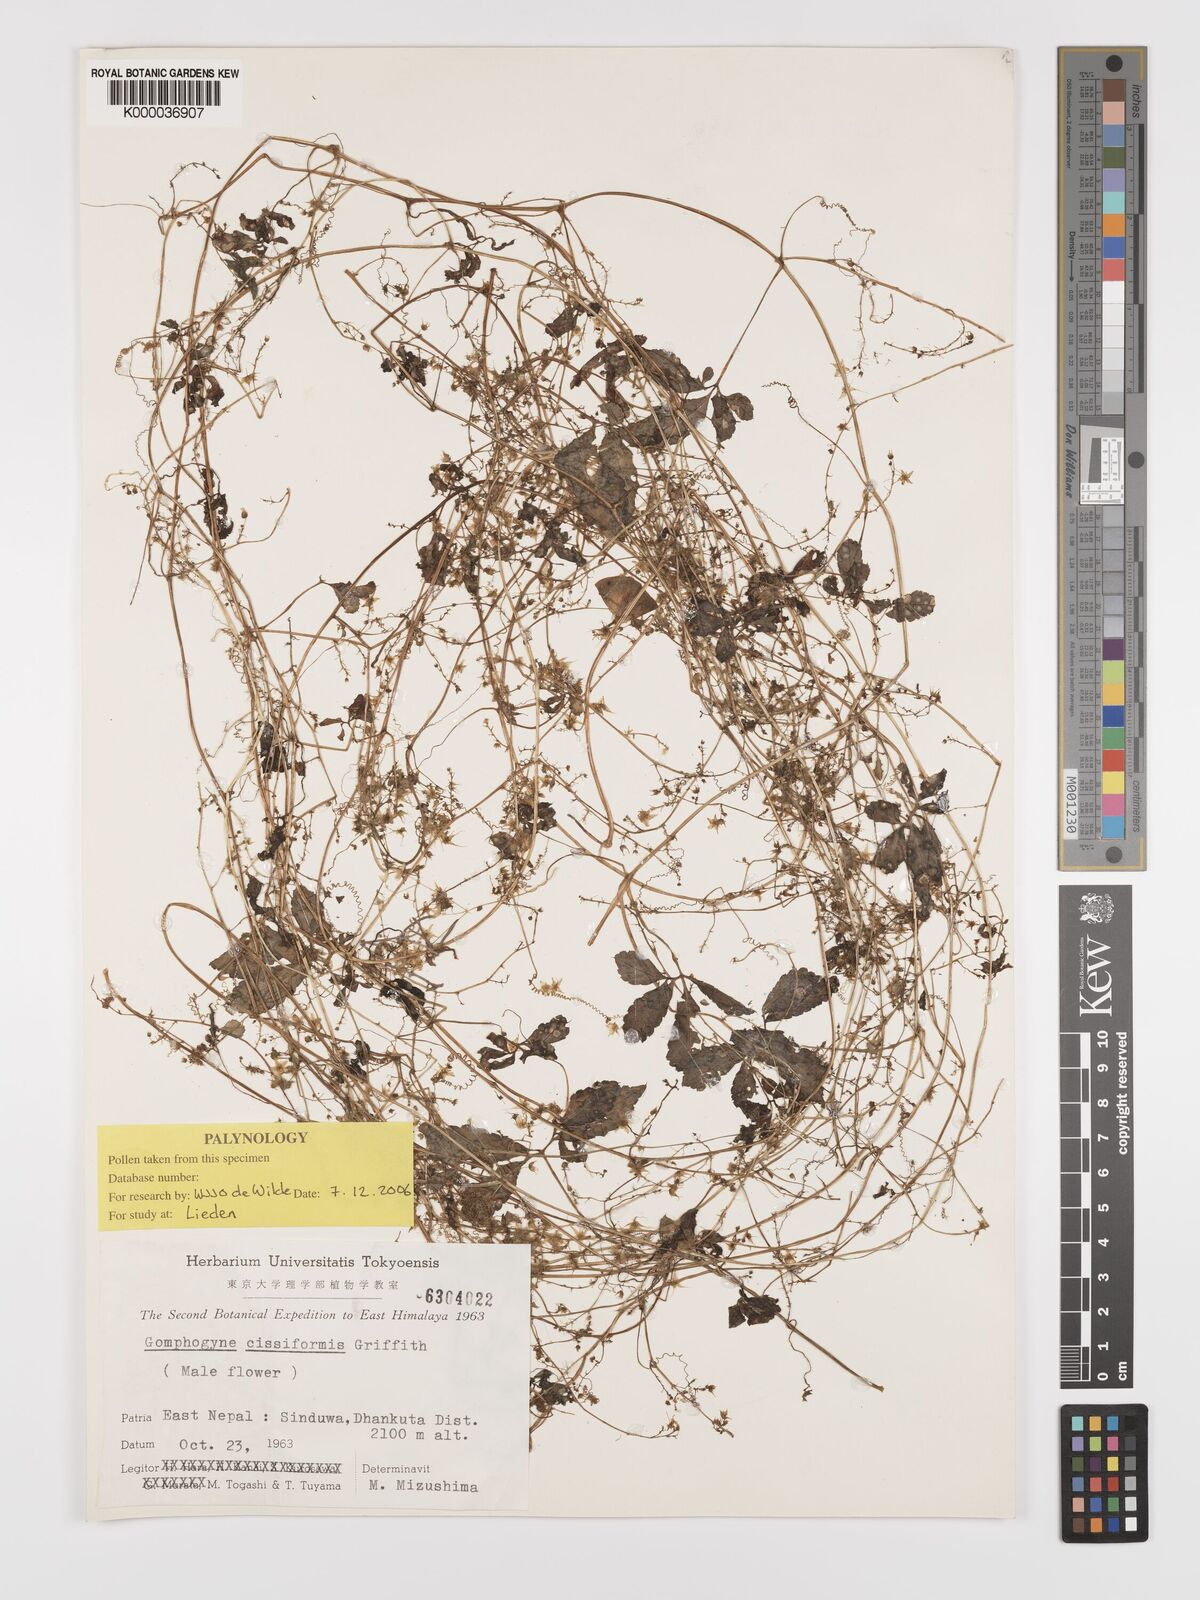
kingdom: Plantae
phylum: Tracheophyta
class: Magnoliopsida
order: Cucurbitales
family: Cucurbitaceae
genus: Gomphogyne
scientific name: Gomphogyne cissiformis
